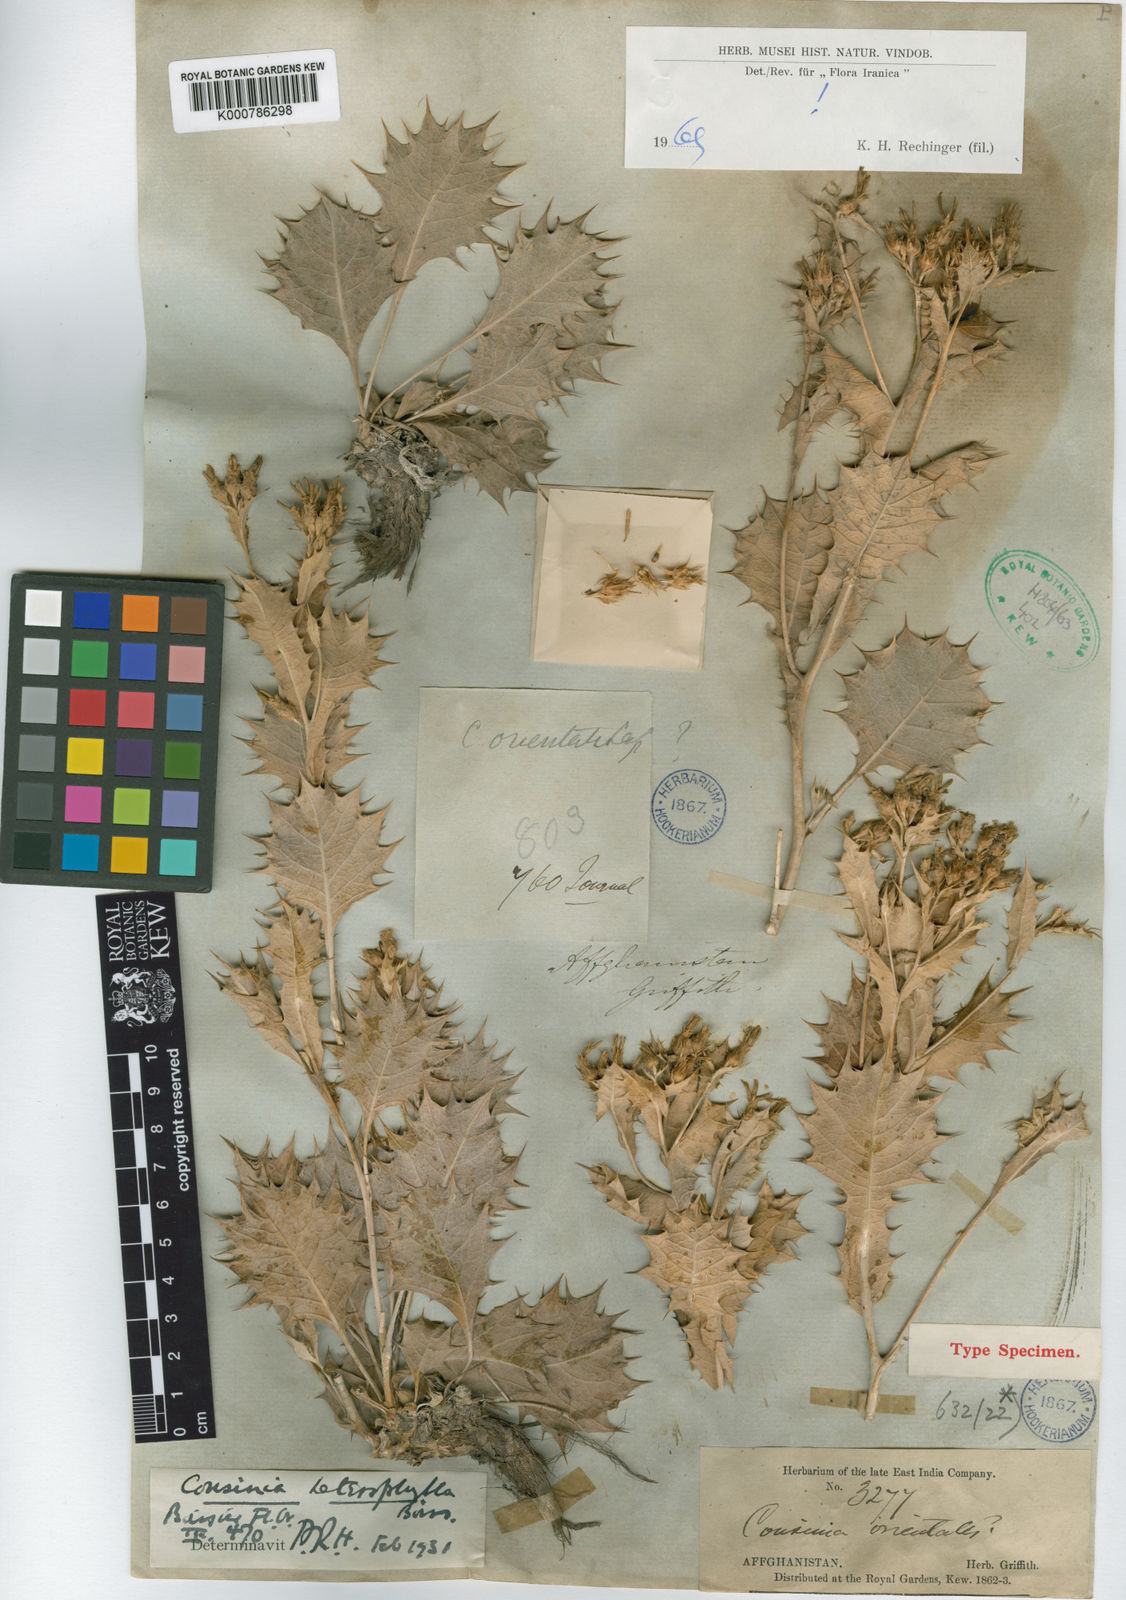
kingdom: Plantae
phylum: Tracheophyta
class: Magnoliopsida
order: Asterales
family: Asteraceae
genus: Cousinia
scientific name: Cousinia heterophylla
